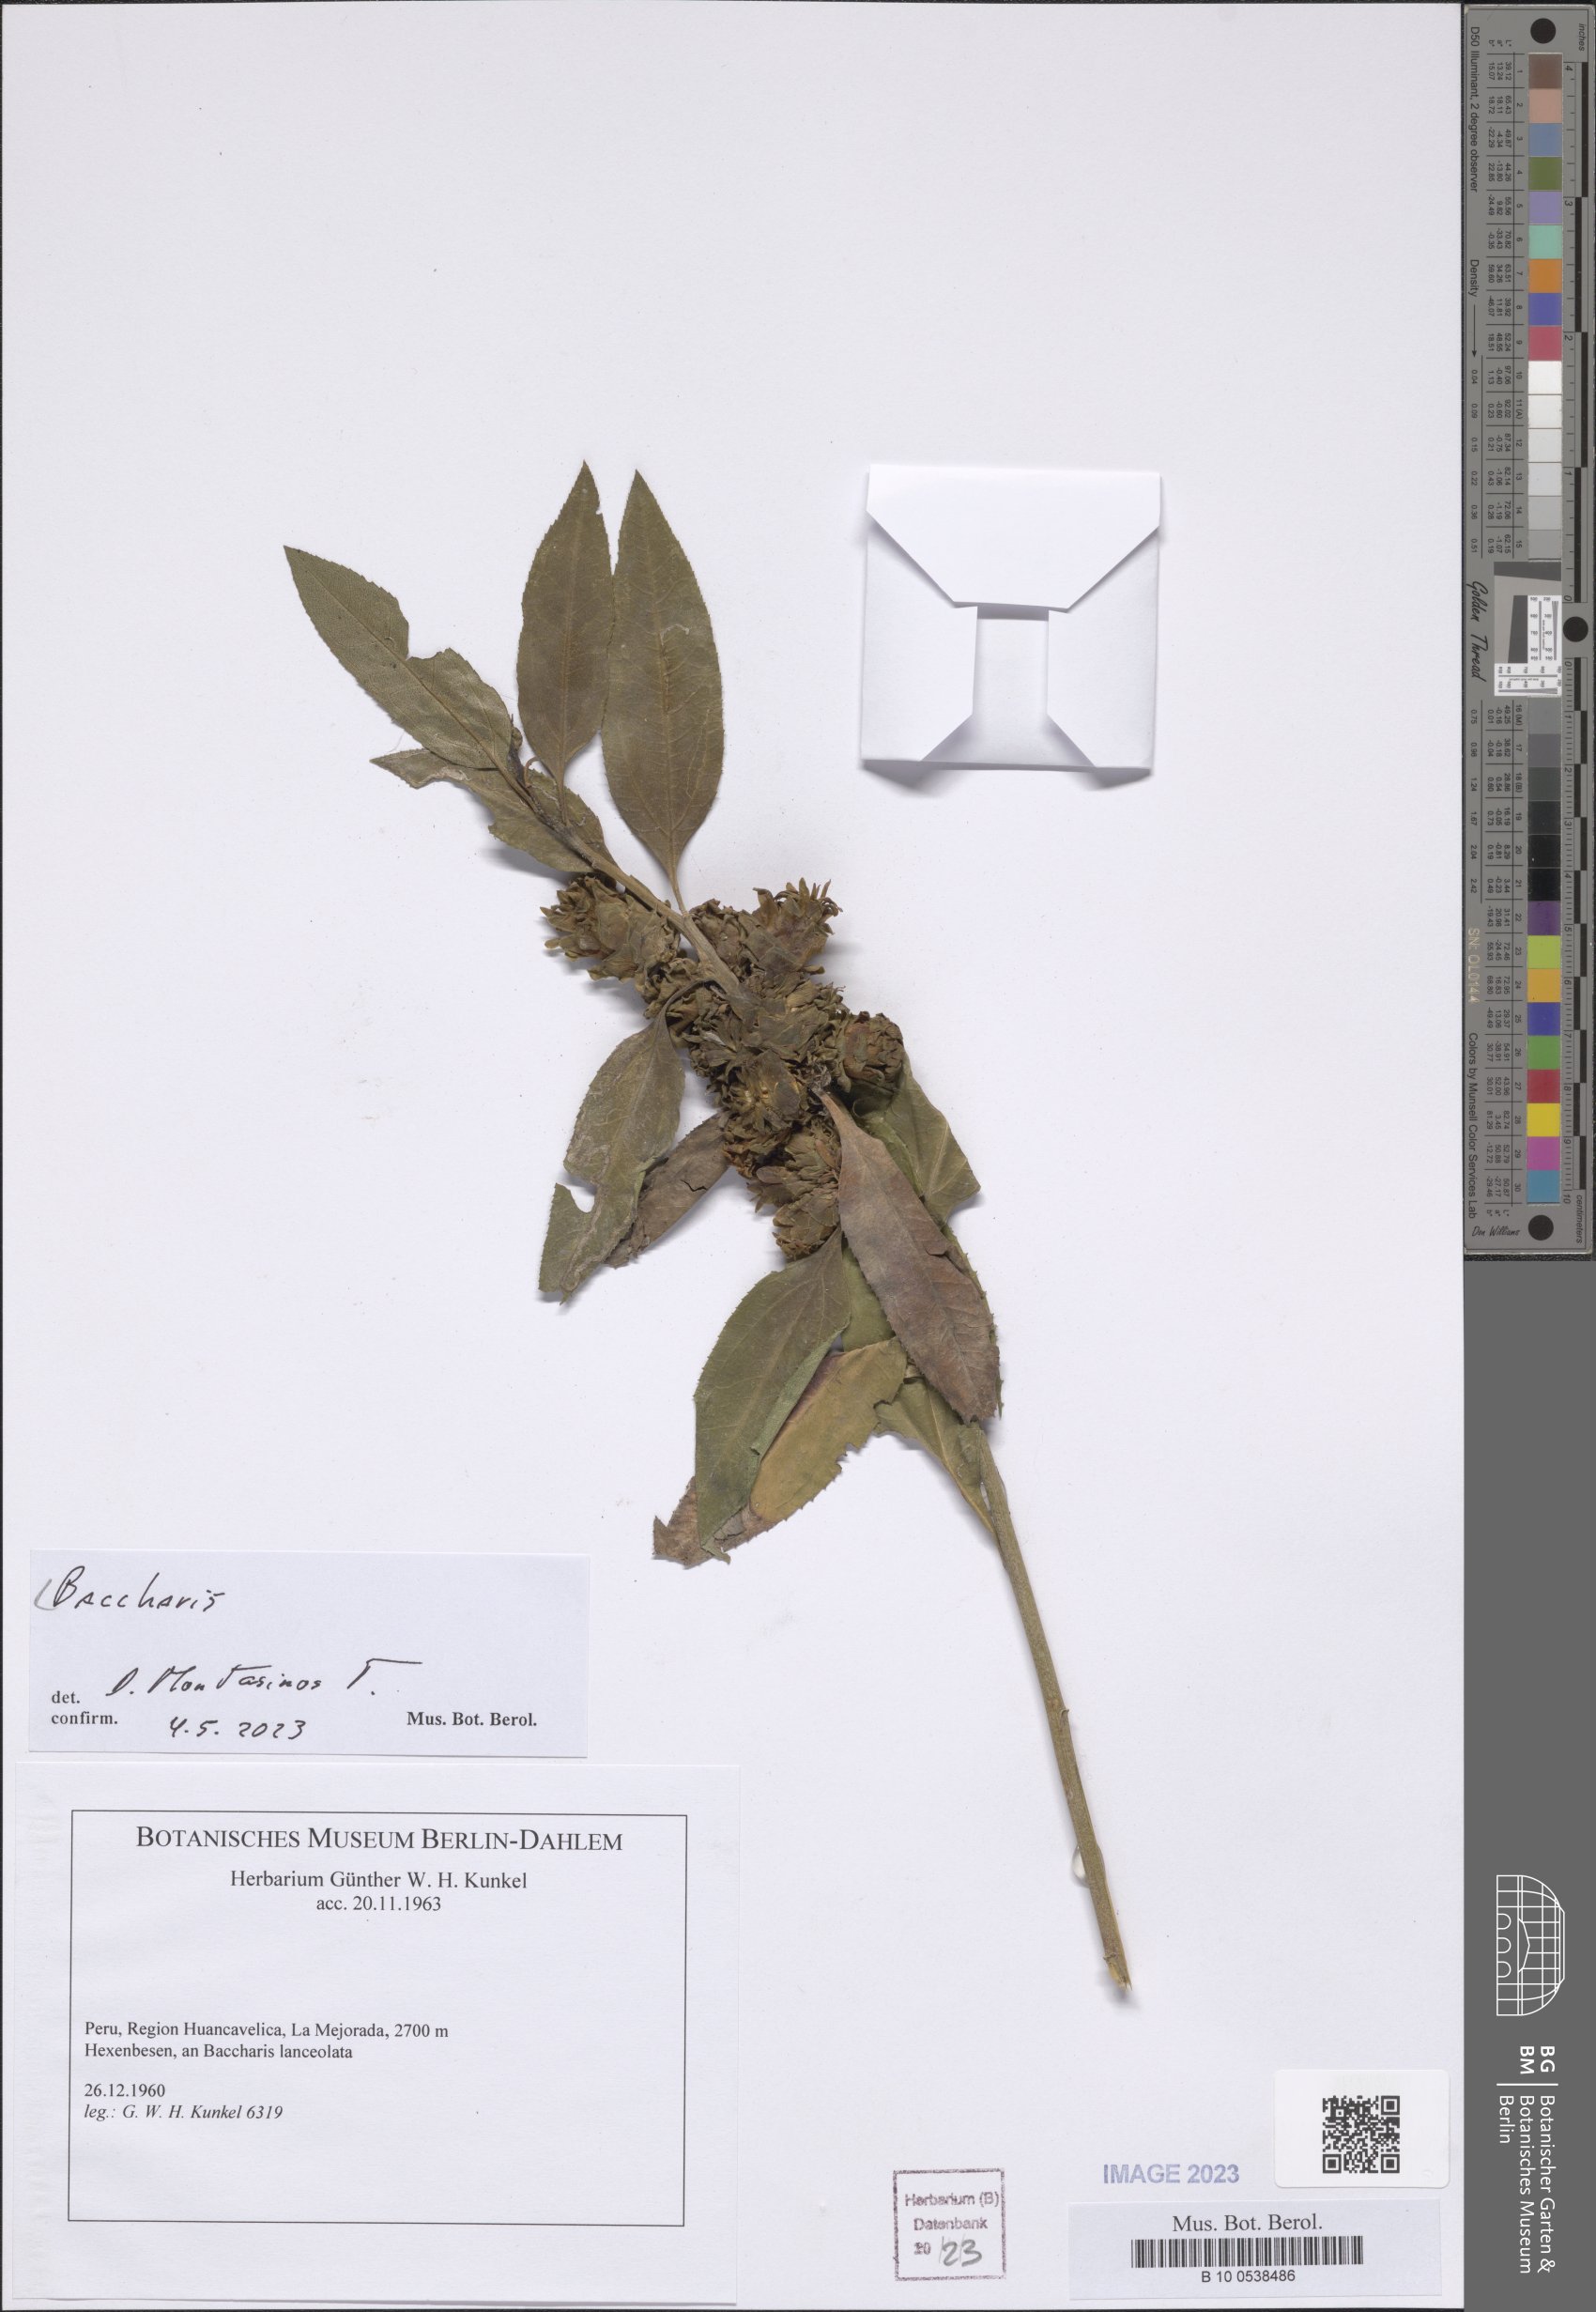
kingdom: Plantae
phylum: Tracheophyta
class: Magnoliopsida
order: Asterales
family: Asteraceae
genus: Baccharis
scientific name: Baccharis
